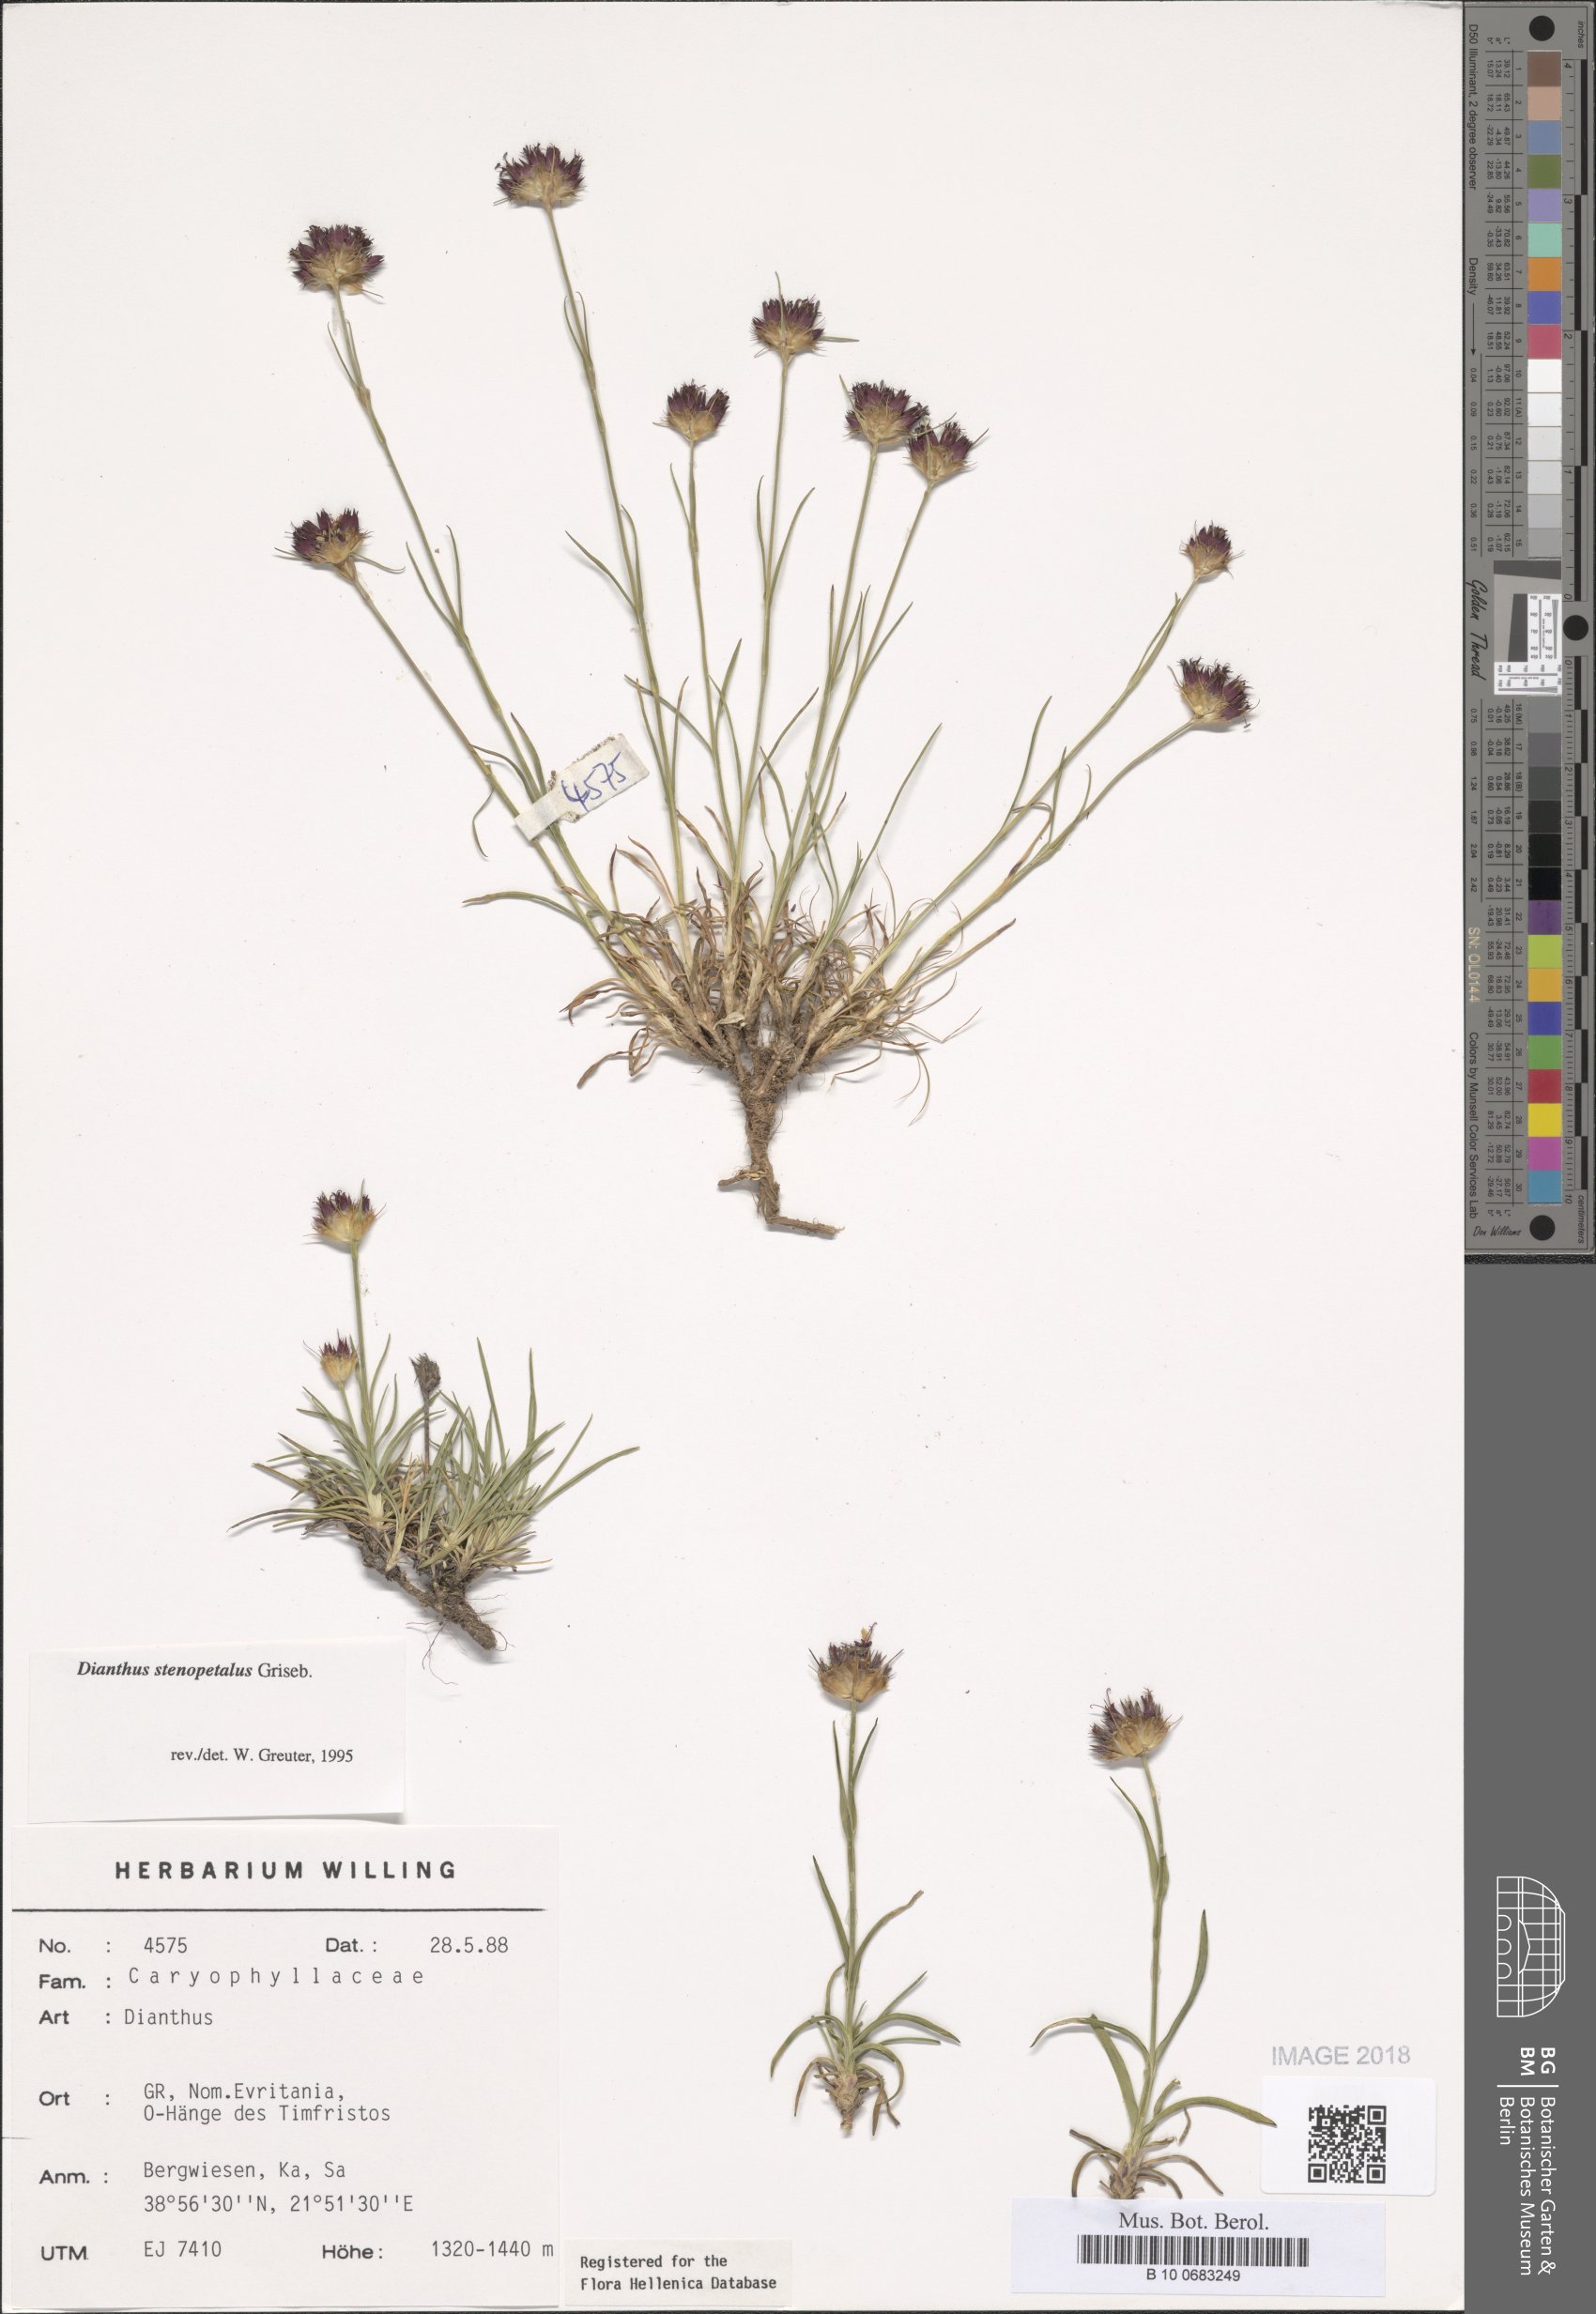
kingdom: Plantae
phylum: Tracheophyta
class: Magnoliopsida
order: Caryophyllales
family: Caryophyllaceae
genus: Dianthus
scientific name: Dianthus stenopetalus
